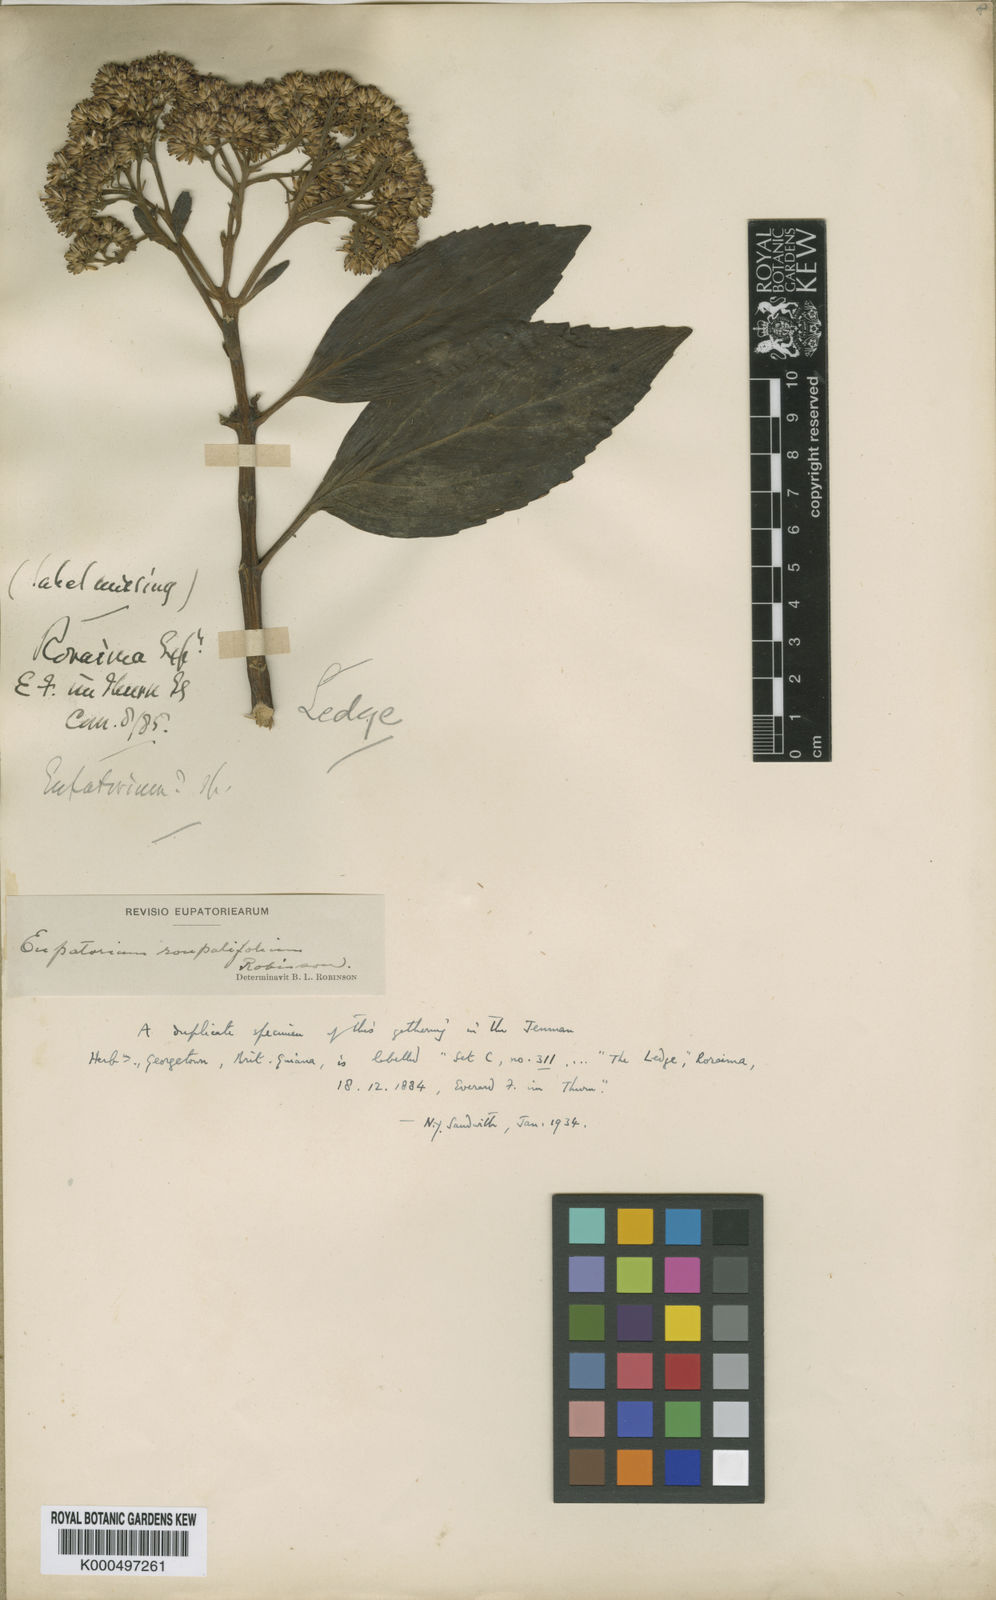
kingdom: Plantae
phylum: Tracheophyta
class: Magnoliopsida
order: Asterales
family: Asteraceae
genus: Guayania
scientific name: Guayania roupalifolia
